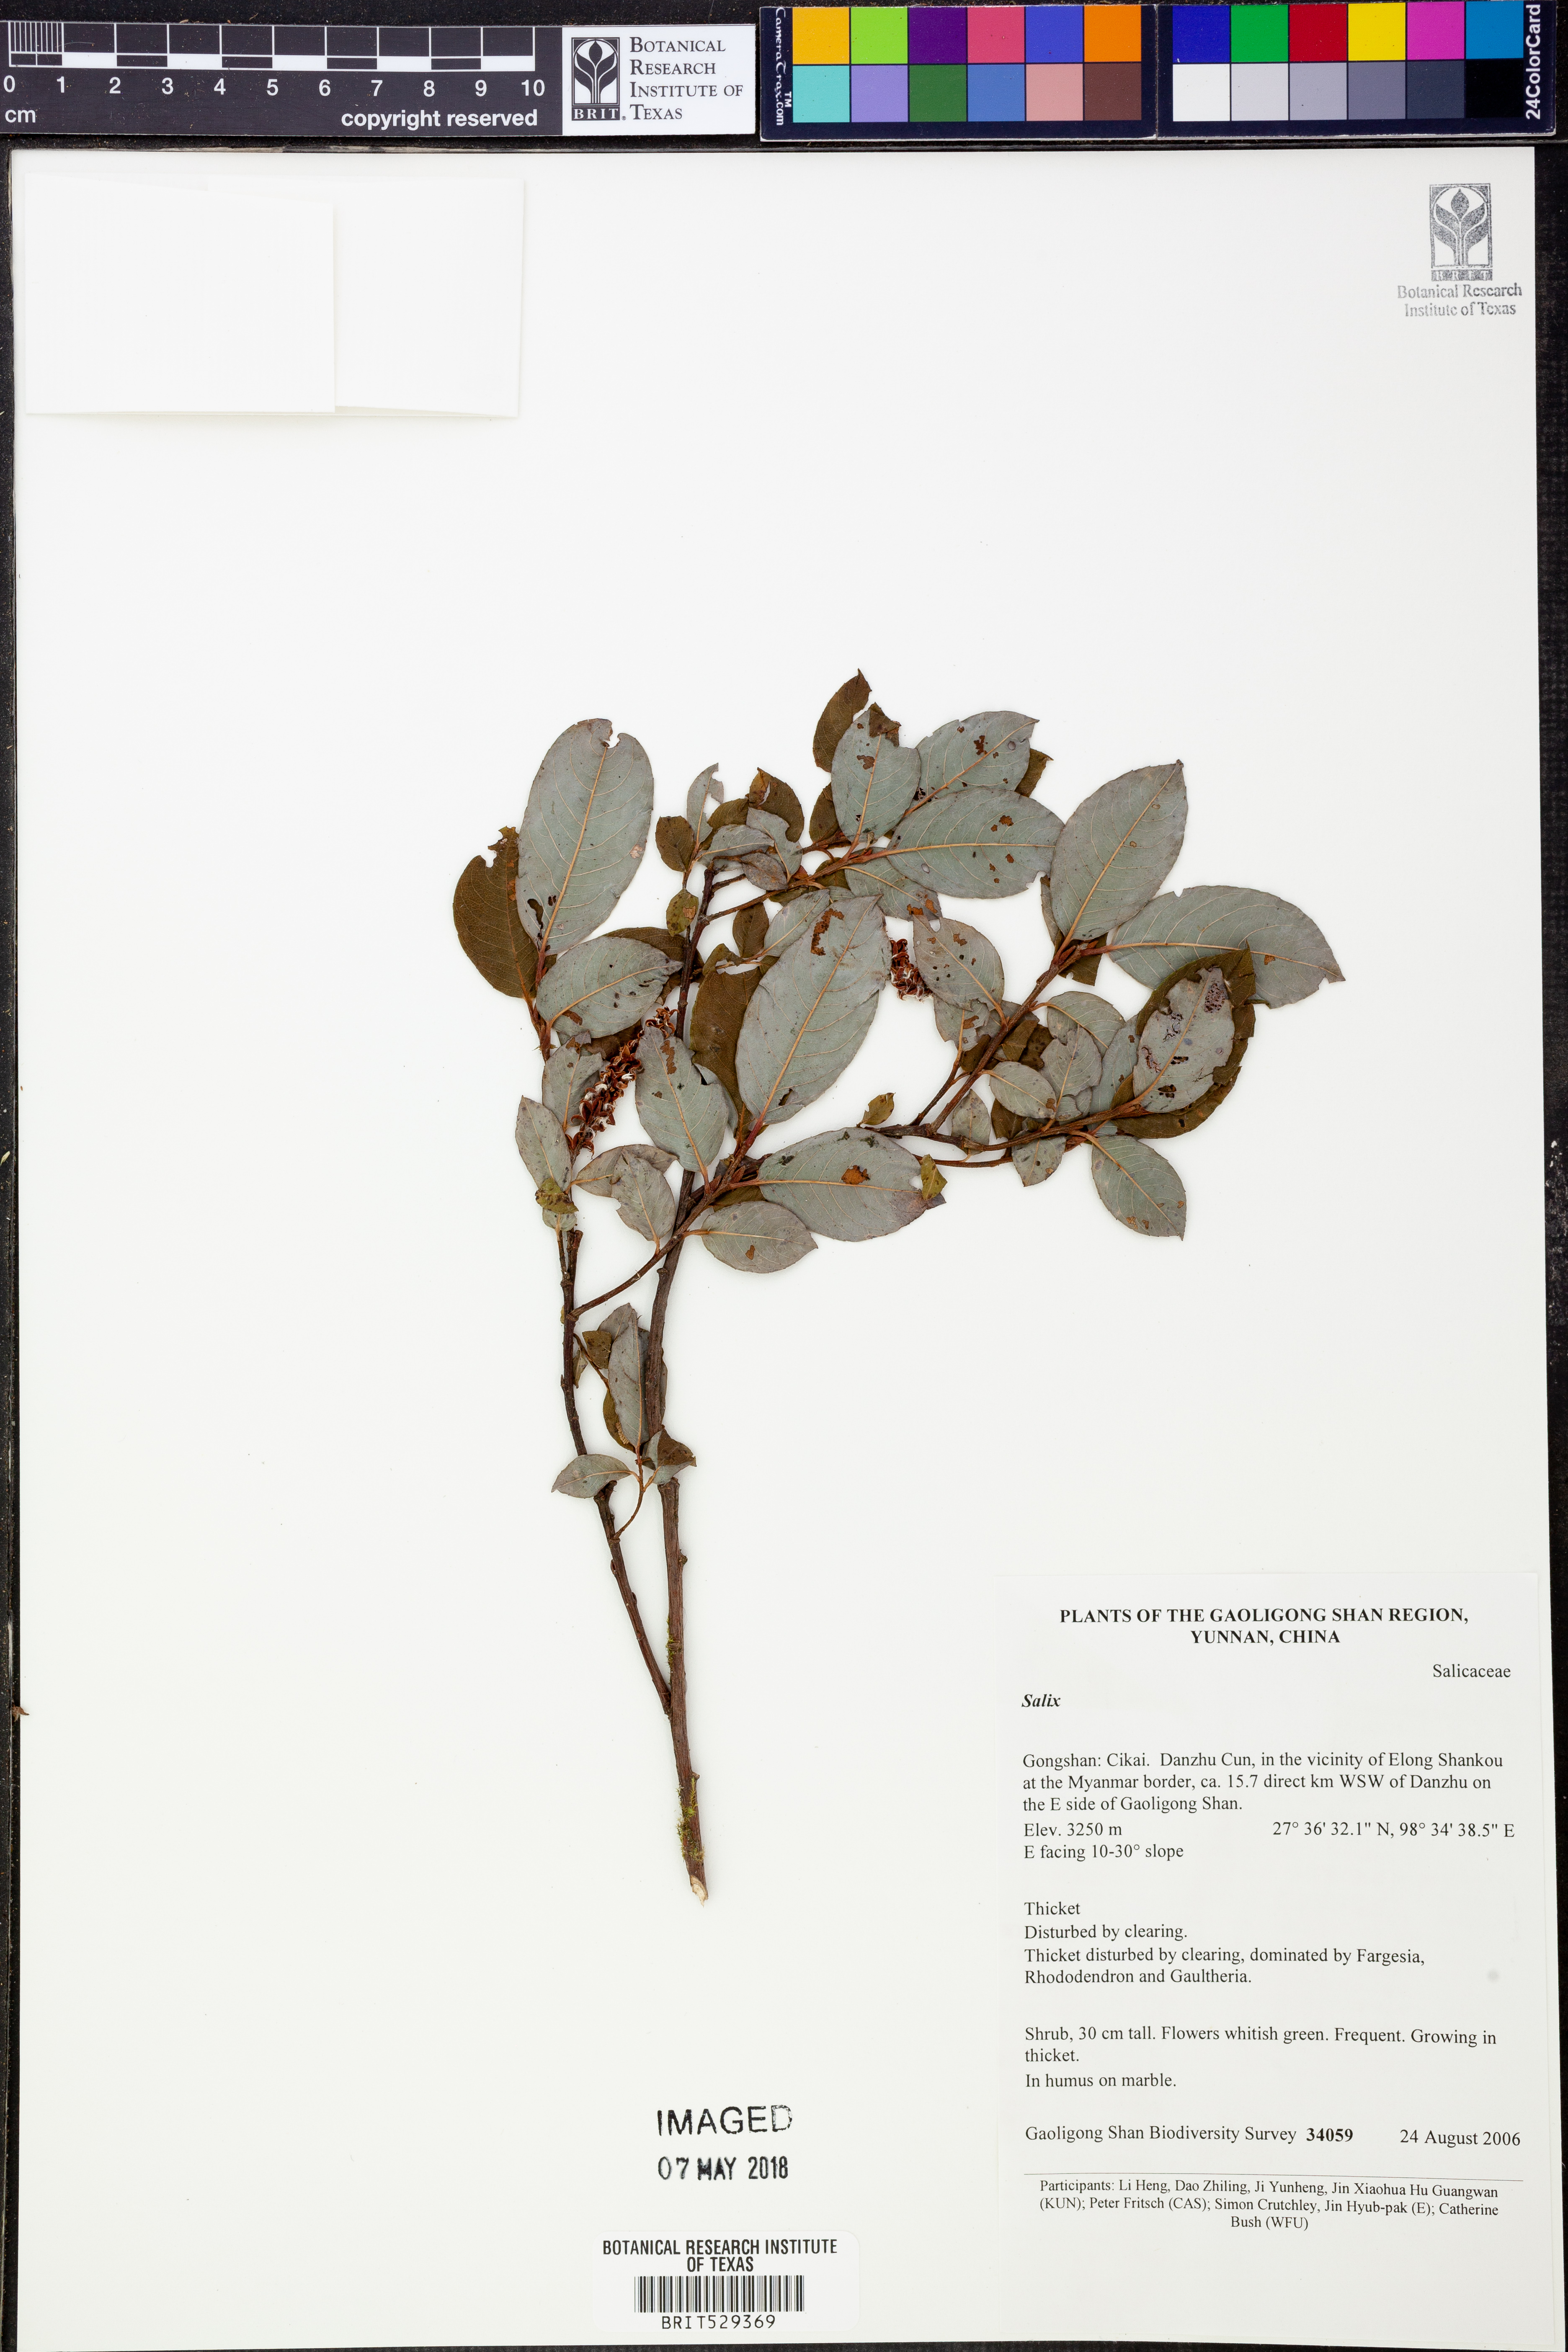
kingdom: Plantae
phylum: Tracheophyta
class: Magnoliopsida
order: Malpighiales
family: Salicaceae
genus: Salix
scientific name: Salix
